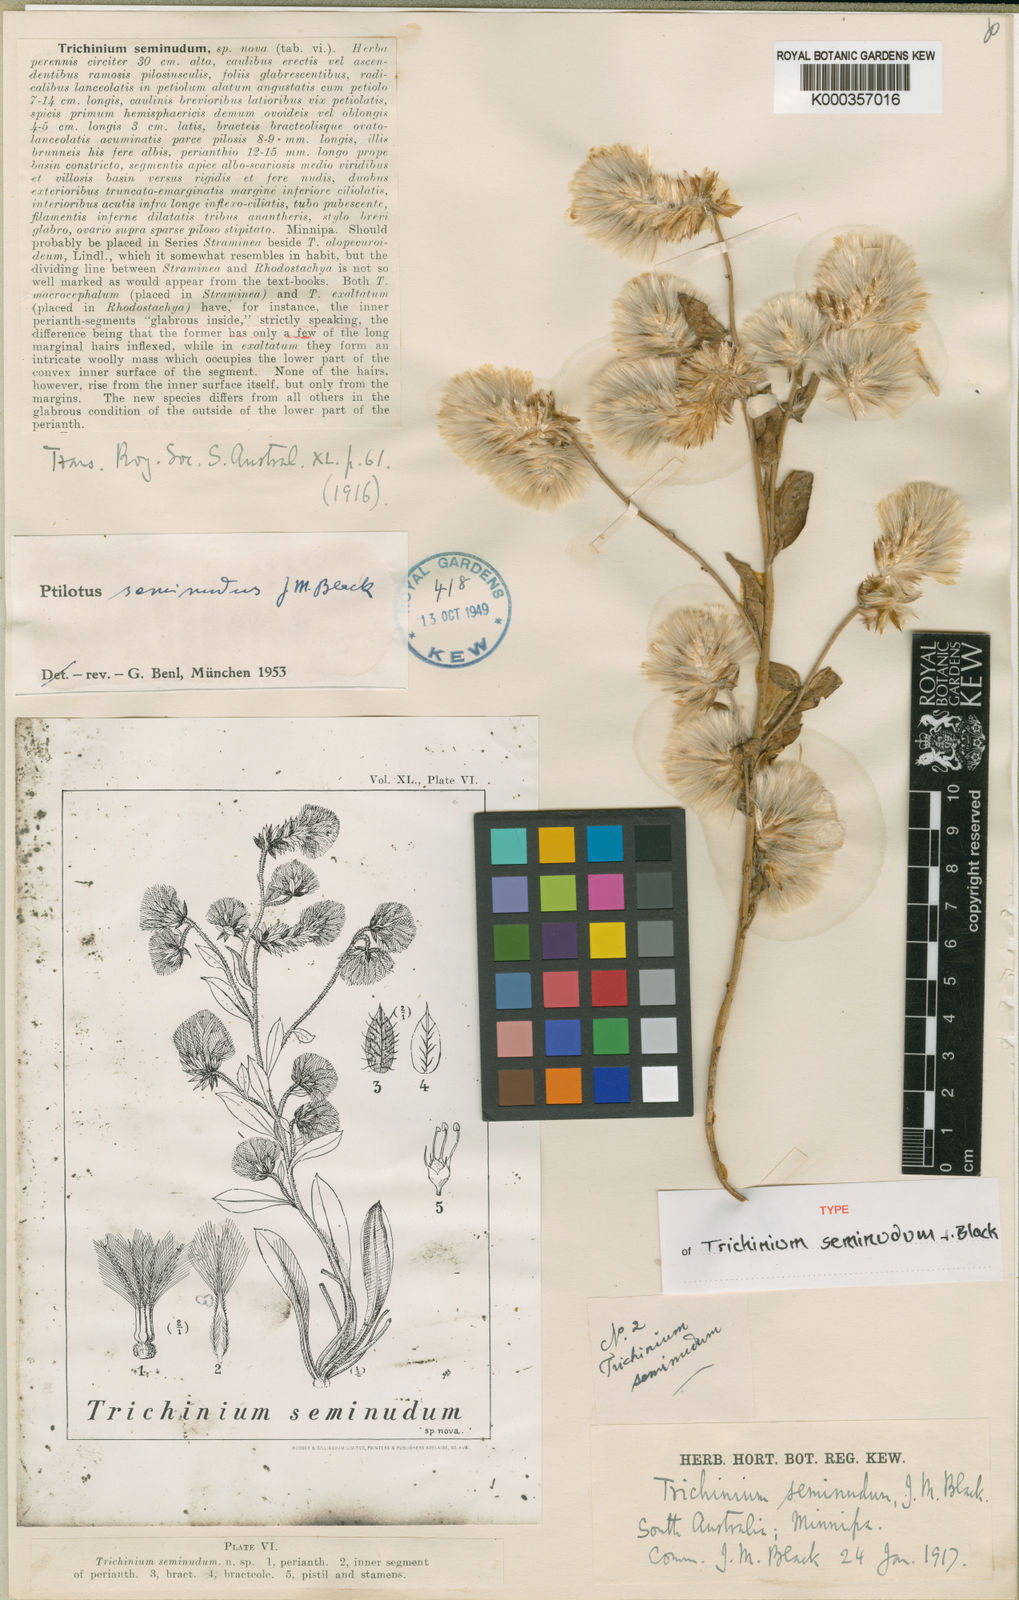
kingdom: Plantae
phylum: Tracheophyta
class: Magnoliopsida
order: Caryophyllales
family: Amaranthaceae
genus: Ptilotus
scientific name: Ptilotus seminudus
